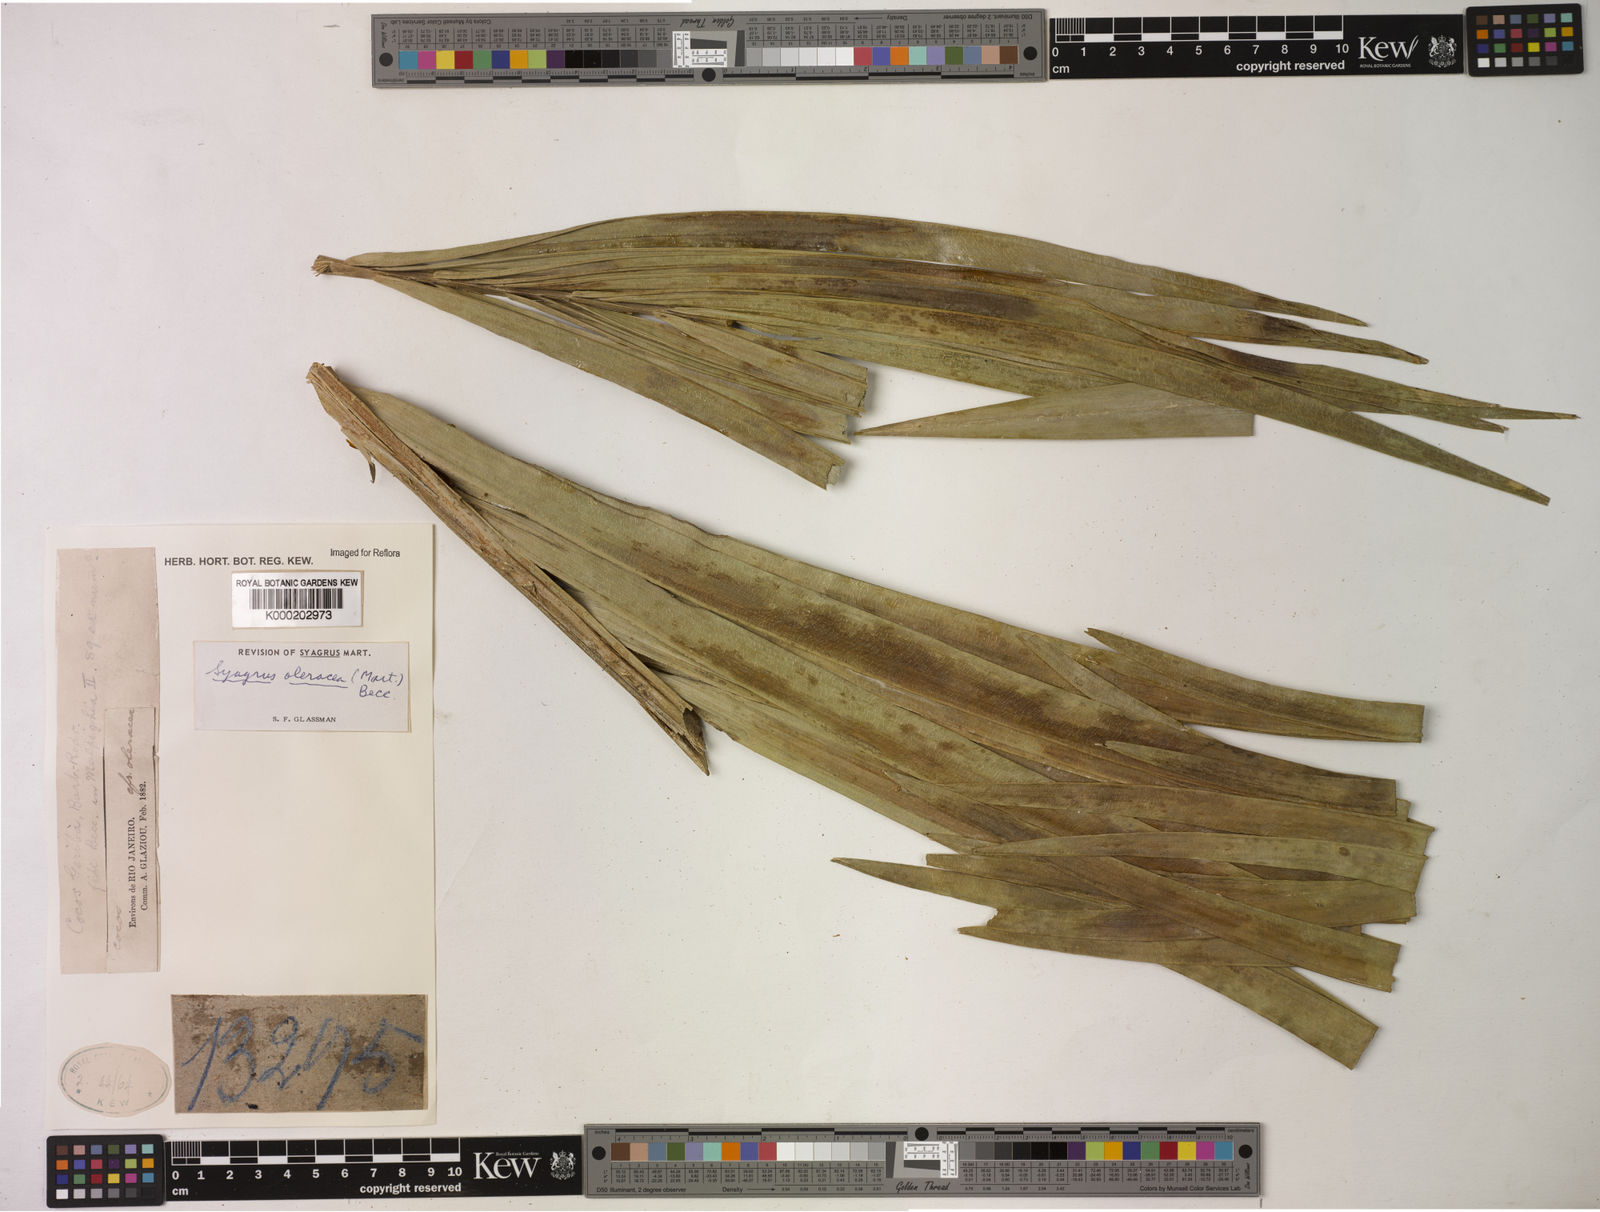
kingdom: Plantae
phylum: Tracheophyta
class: Liliopsida
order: Arecales
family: Arecaceae
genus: Syagrus
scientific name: Syagrus oleracea
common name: Catole palm
